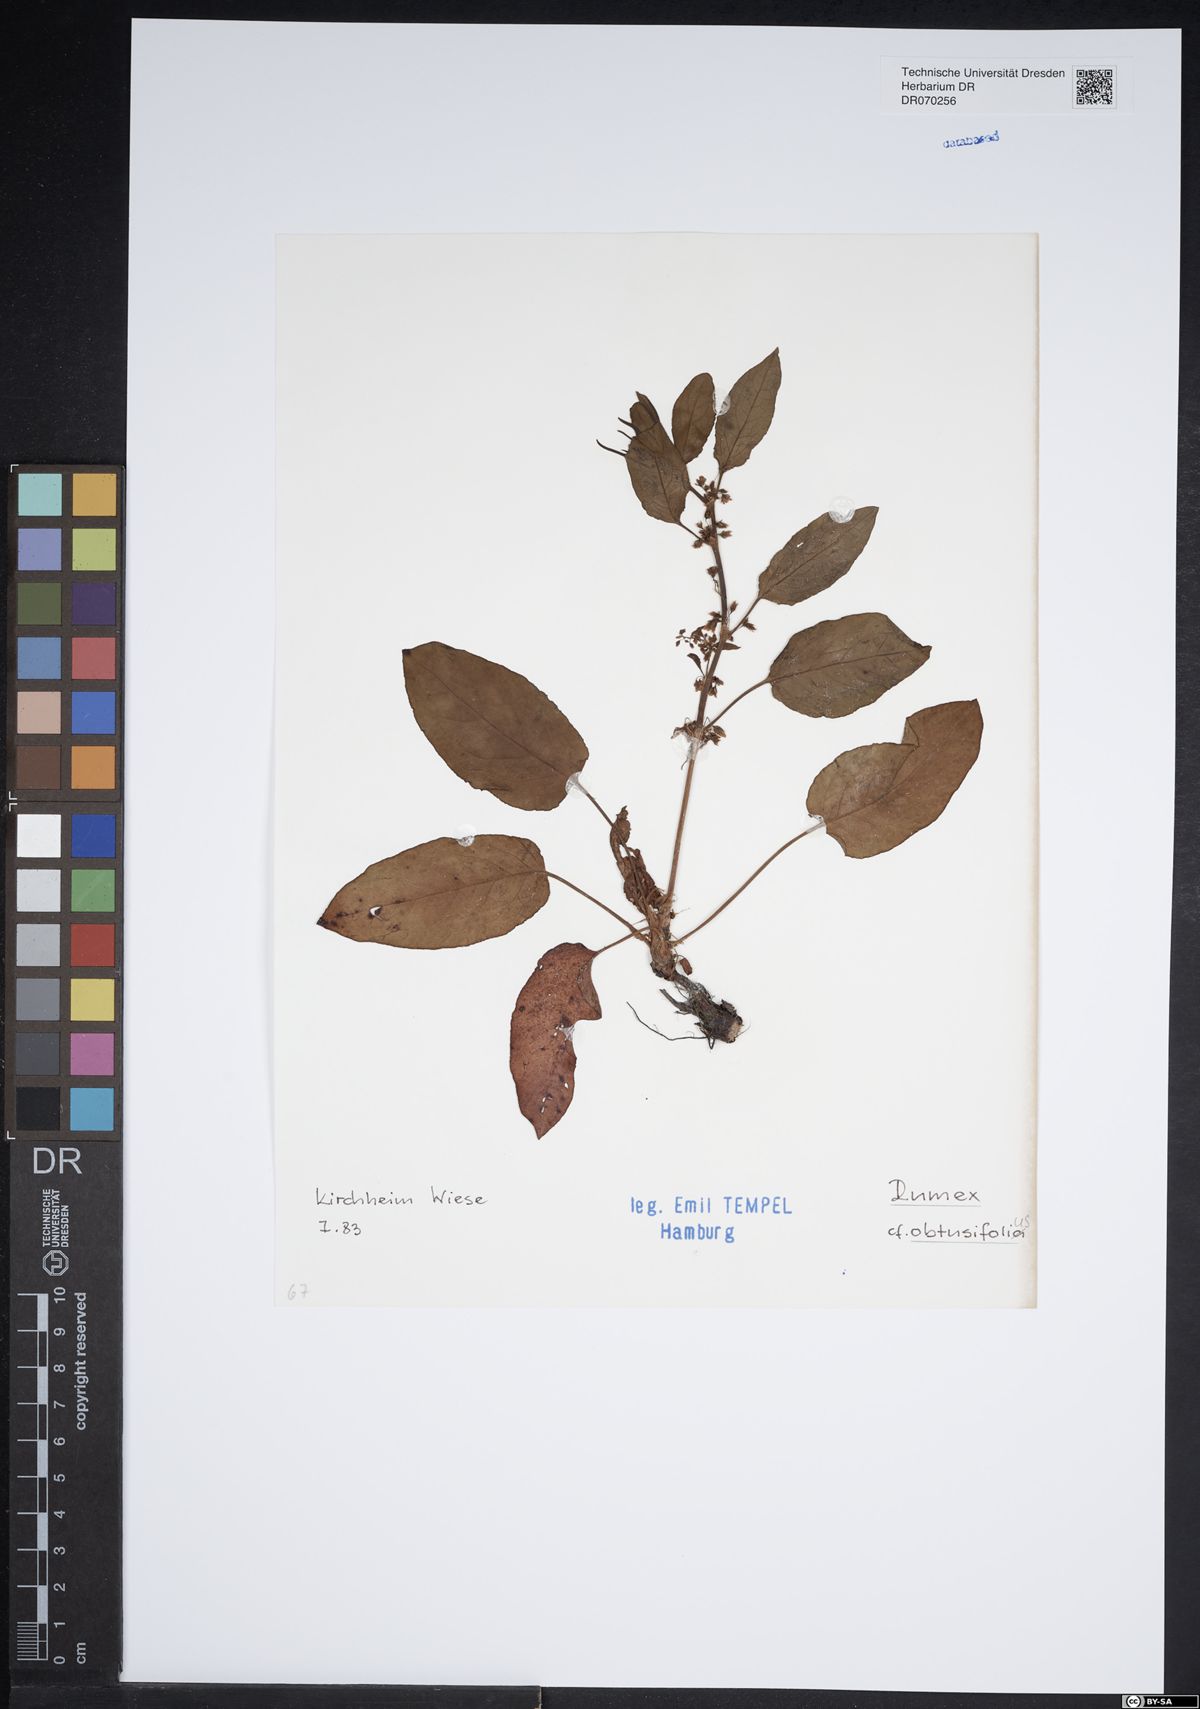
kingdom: Plantae
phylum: Tracheophyta
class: Magnoliopsida
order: Caryophyllales
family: Polygonaceae
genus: Rumex
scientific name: Rumex obtusifolius
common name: Bitter dock
